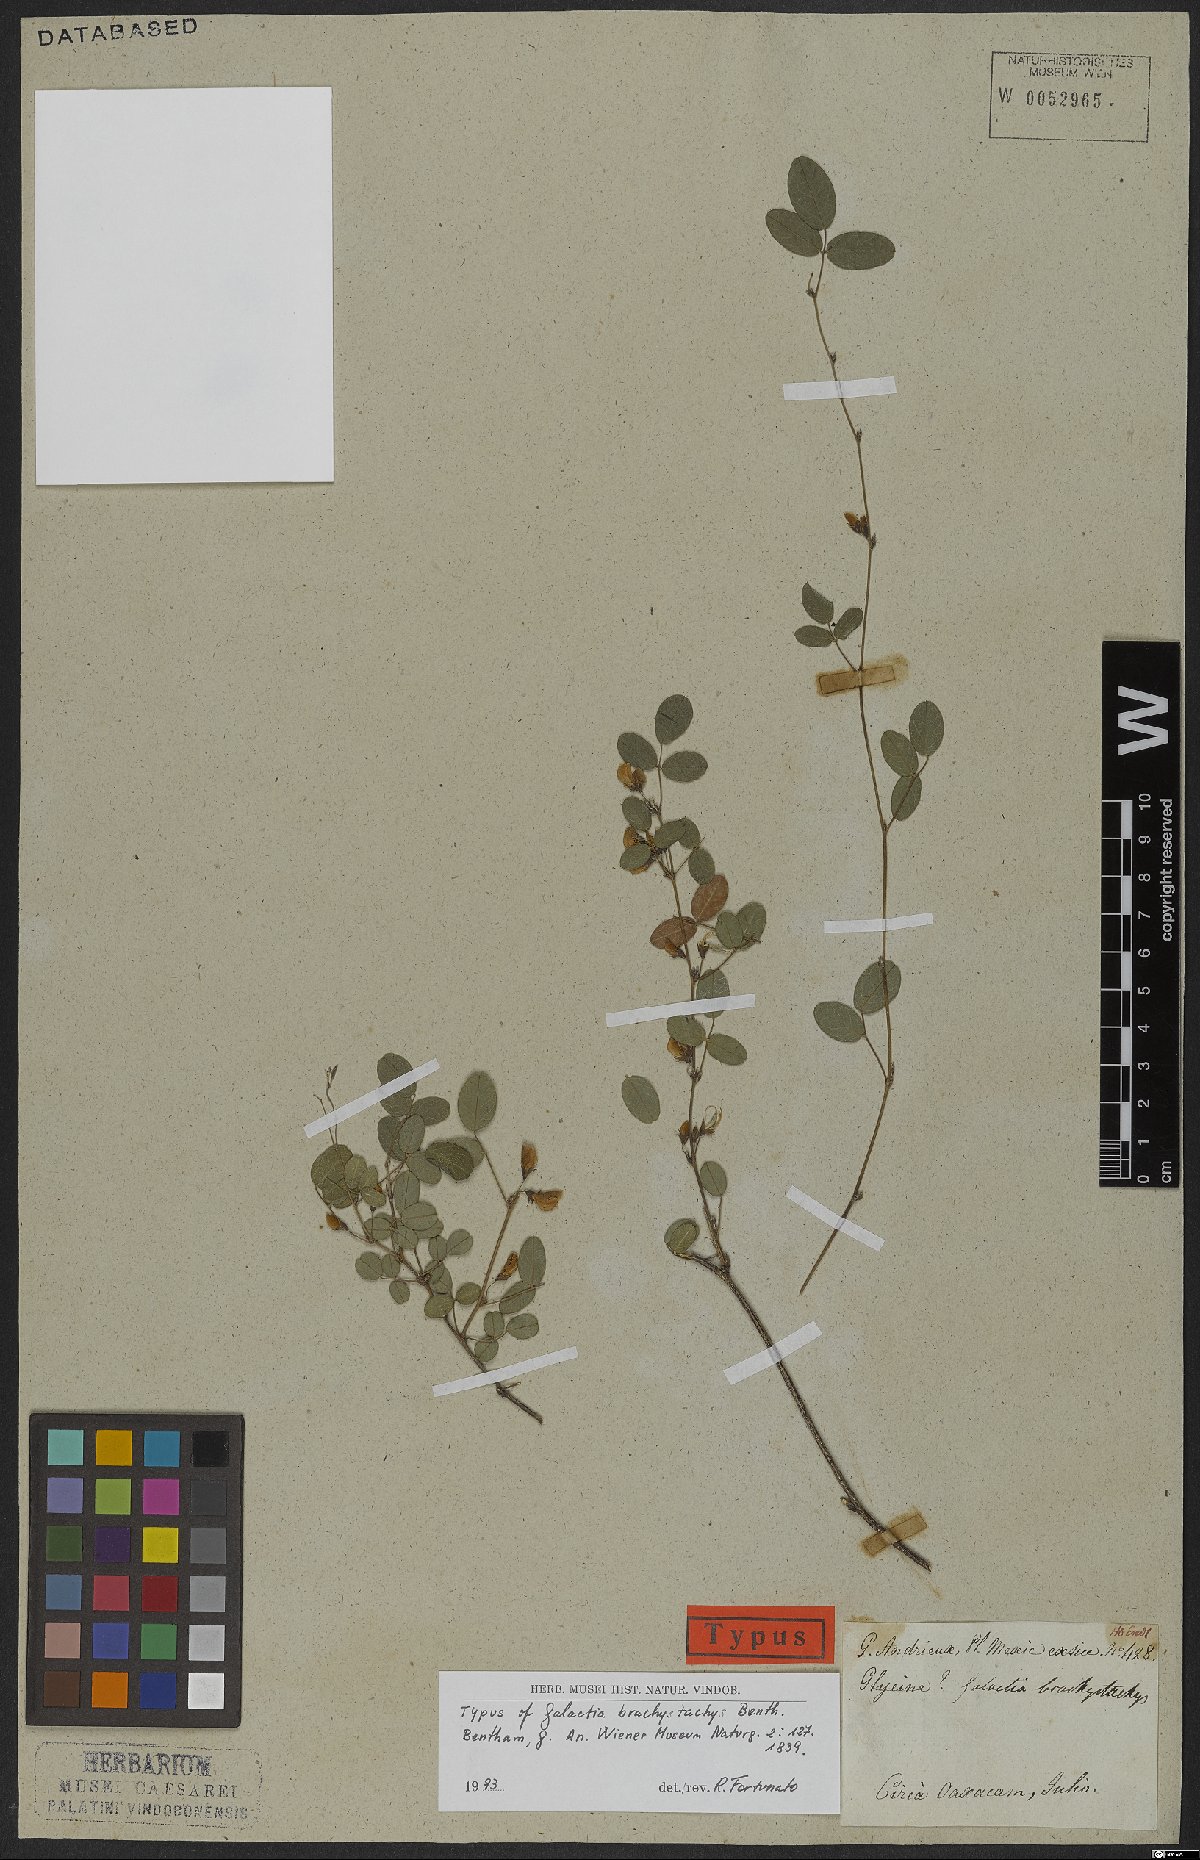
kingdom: Plantae
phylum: Tracheophyta
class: Magnoliopsida
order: Fabales
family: Fabaceae
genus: Nanogalactia
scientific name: Nanogalactia brachystachys
